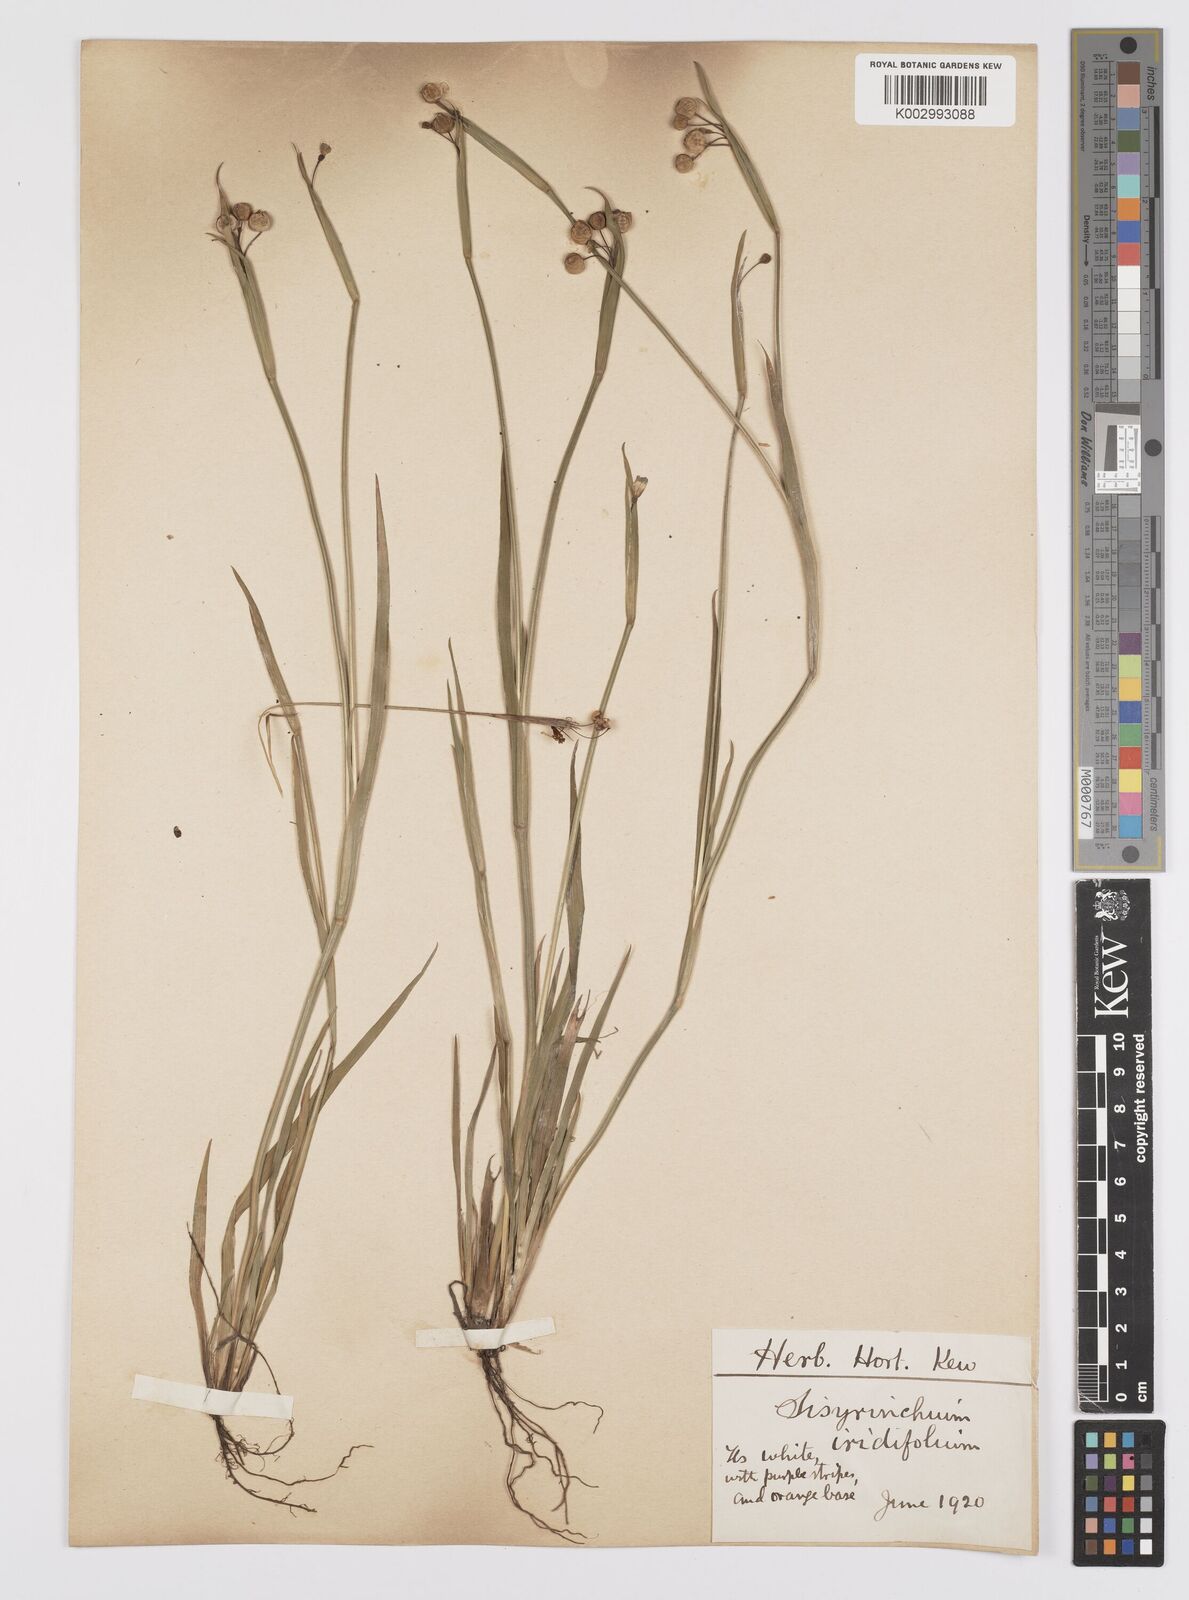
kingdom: Plantae
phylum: Tracheophyta
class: Liliopsida
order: Asparagales
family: Iridaceae
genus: Sisyrinchium
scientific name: Sisyrinchium micranthum
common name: Bermuda pigroot
